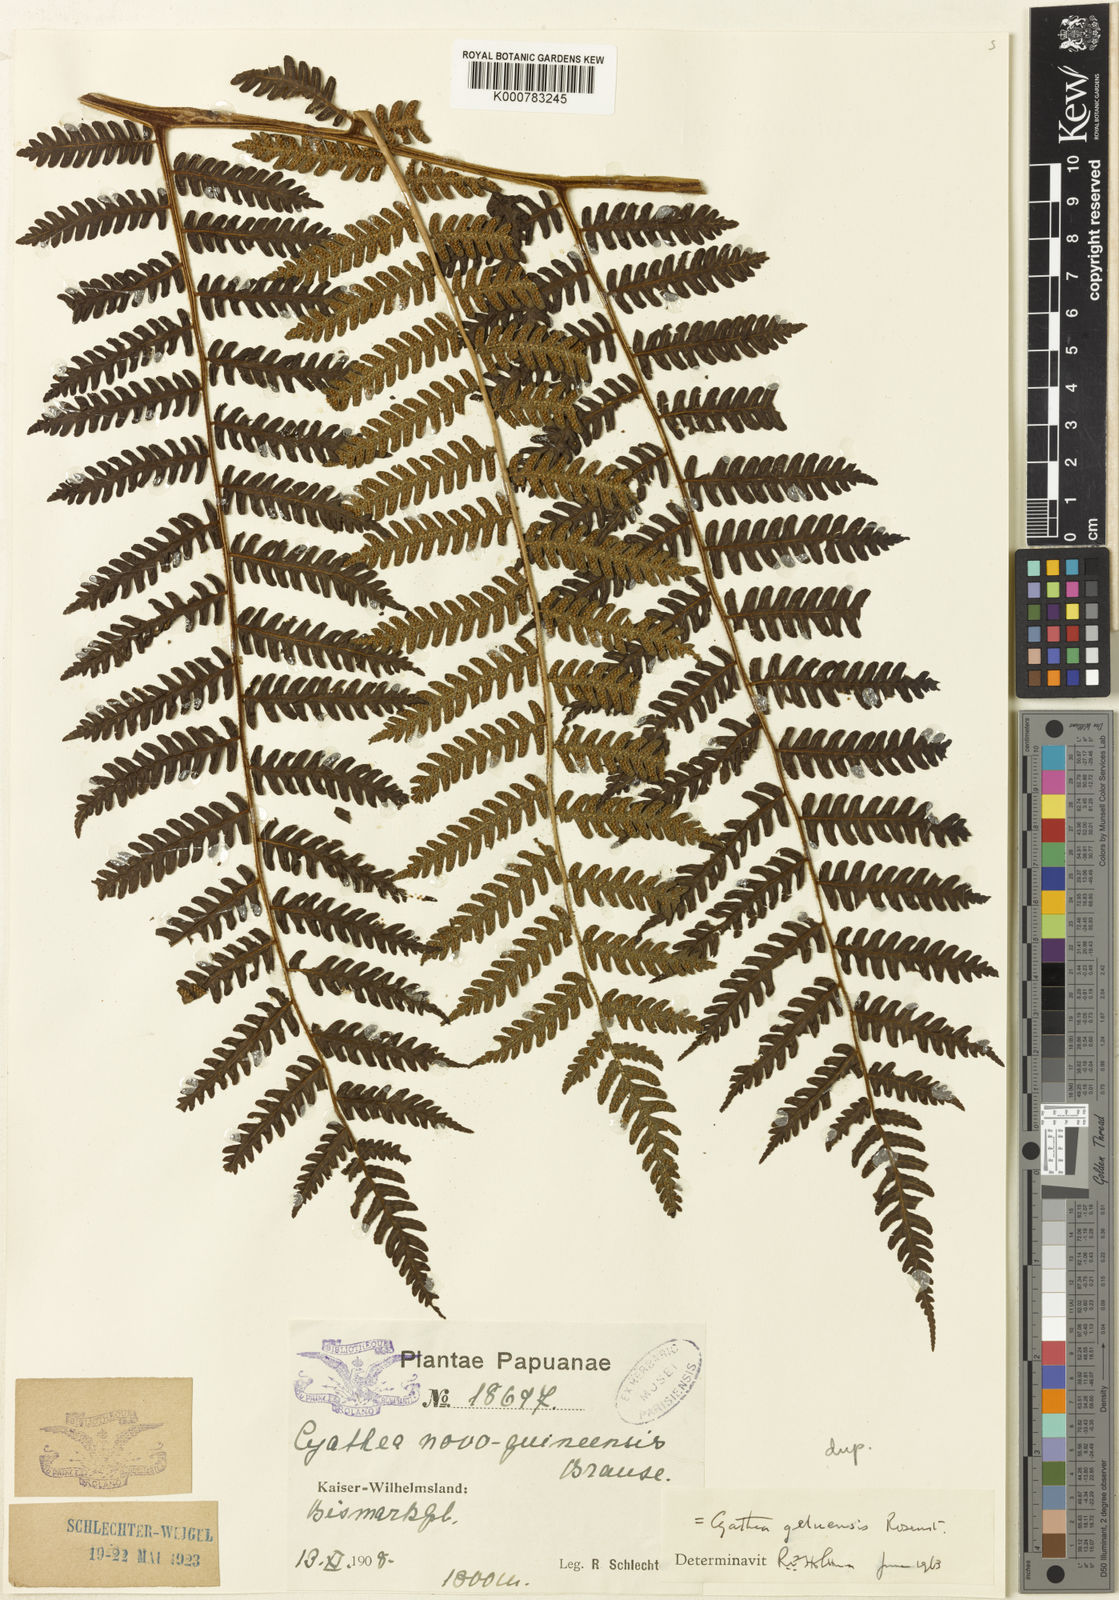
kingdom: Plantae
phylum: Tracheophyta
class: Polypodiopsida
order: Cyatheales
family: Cyatheaceae
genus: Alsophila
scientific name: Alsophila geluensis
